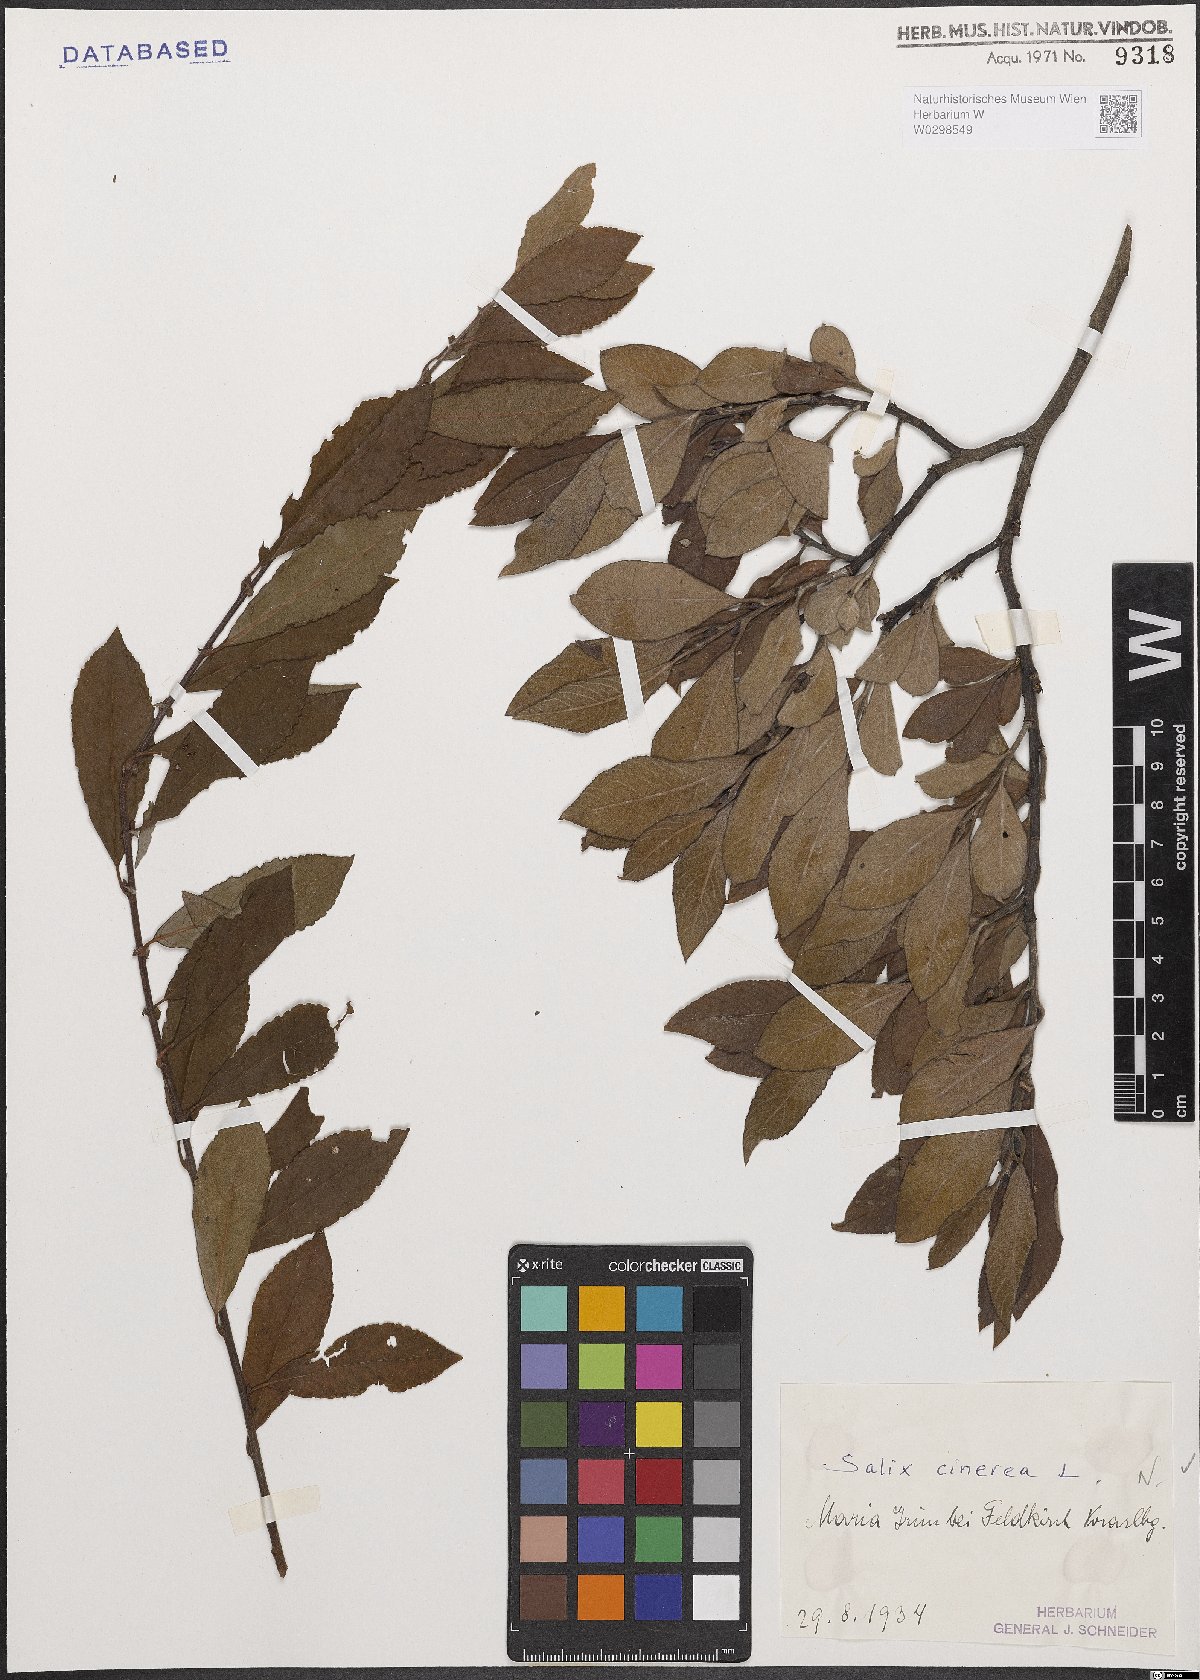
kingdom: Plantae
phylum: Tracheophyta
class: Magnoliopsida
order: Malpighiales
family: Salicaceae
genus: Salix
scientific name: Salix cinerea
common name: Common sallow
